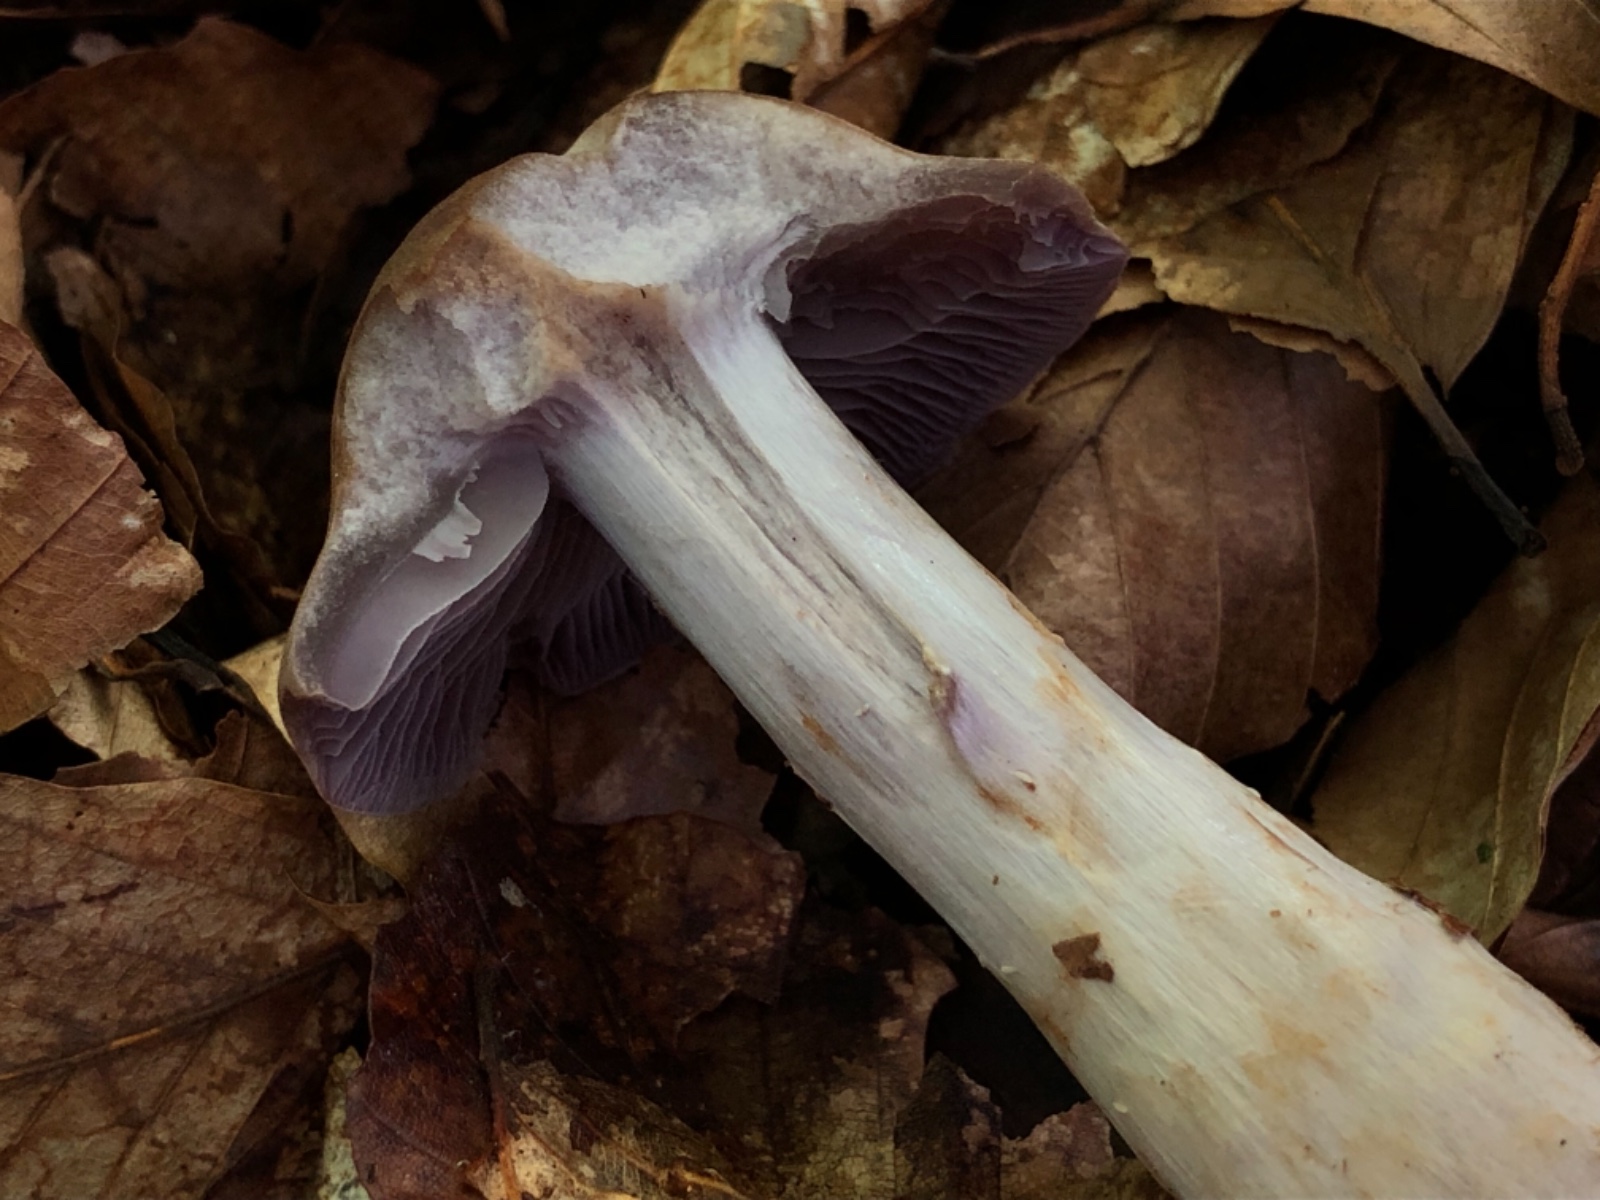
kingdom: Fungi
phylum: Basidiomycota
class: Agaricomycetes
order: Agaricales
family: Cortinariaceae
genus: Cortinarius
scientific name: Cortinarius anomalus
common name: Variable webcap
